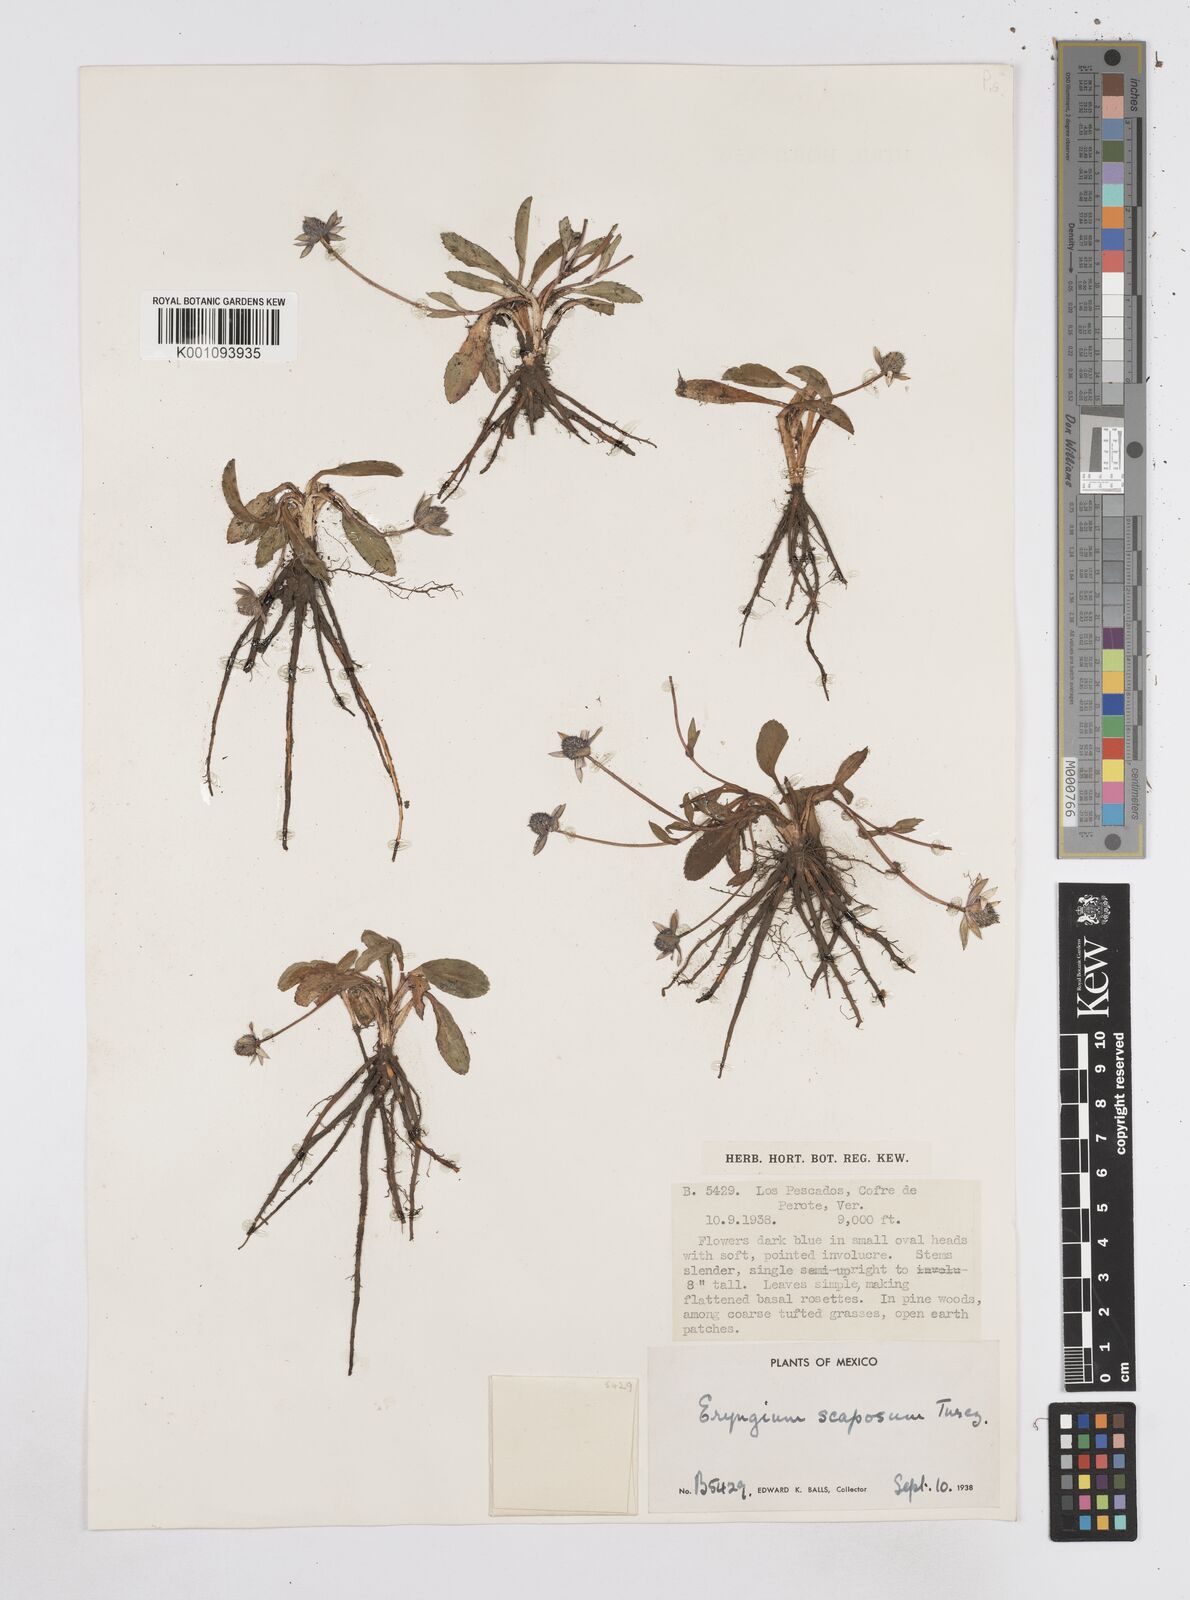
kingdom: Plantae
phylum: Tracheophyta
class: Magnoliopsida
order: Apiales
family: Apiaceae
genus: Eryngium
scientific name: Eryngium scaposum
